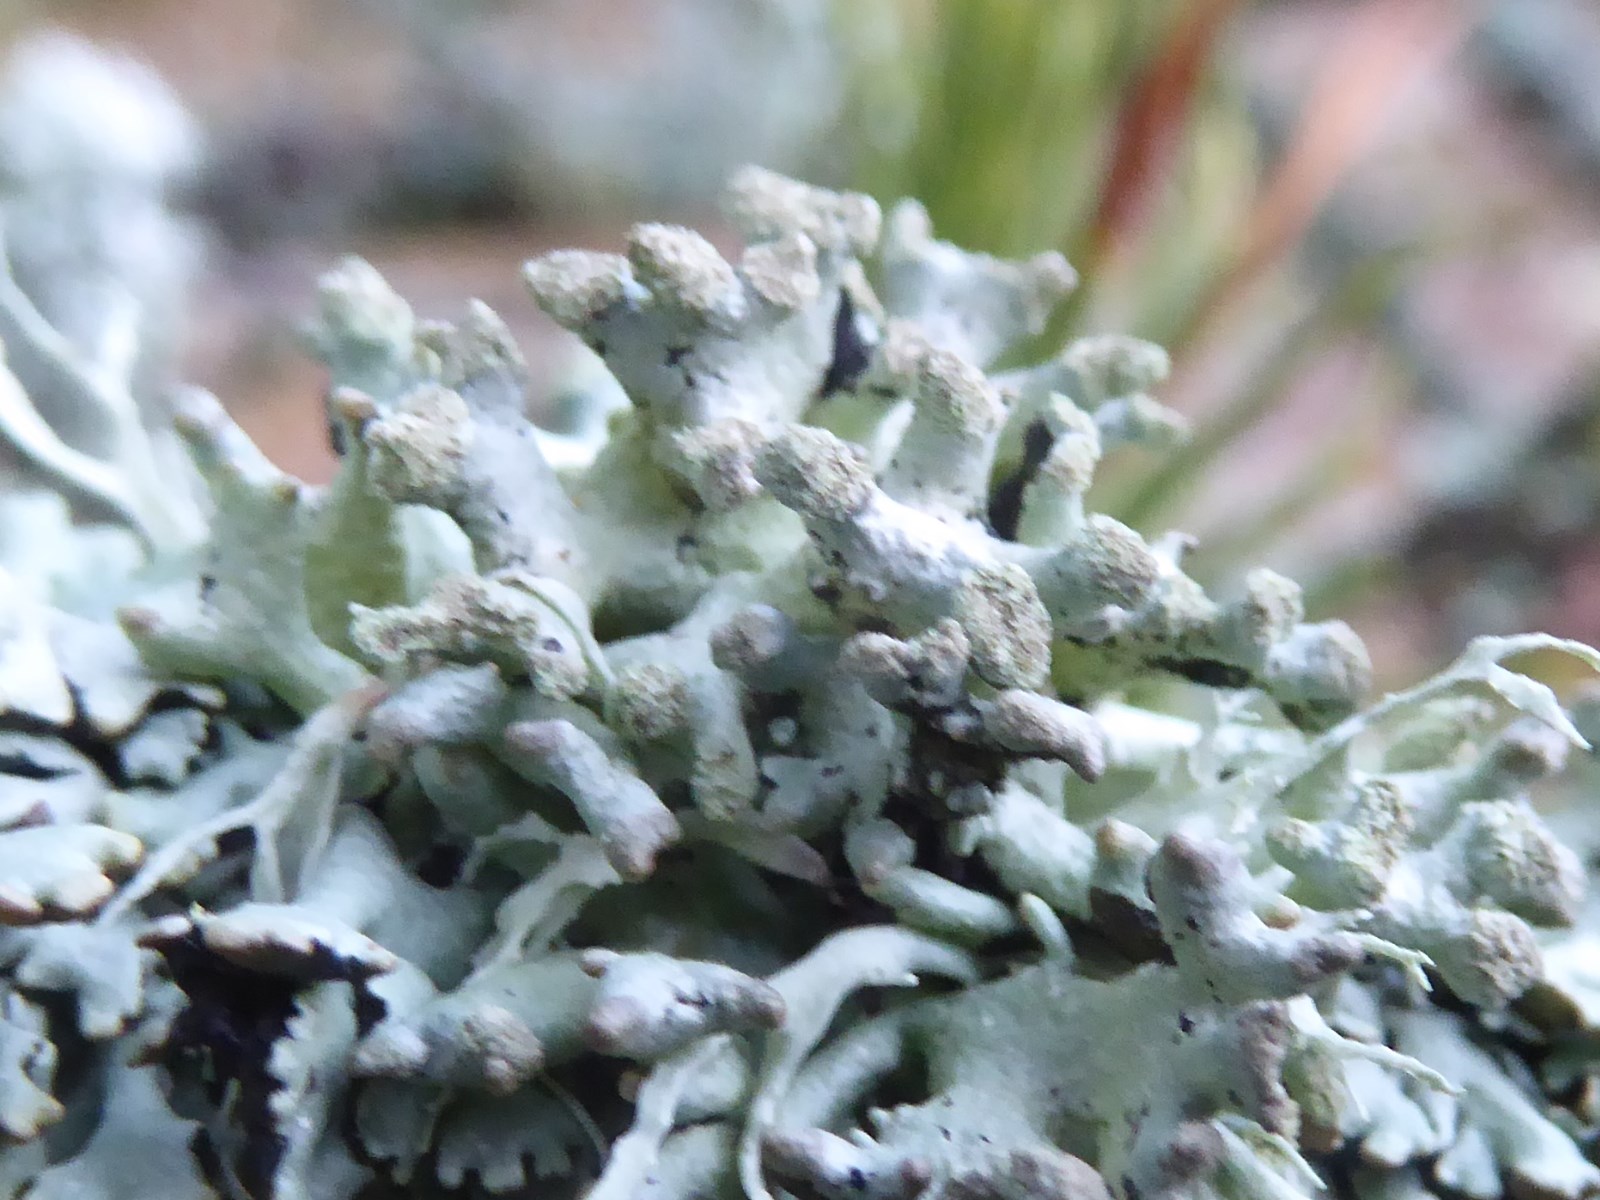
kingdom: Fungi
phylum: Ascomycota
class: Lecanoromycetes
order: Lecanorales
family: Parmeliaceae
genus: Hypogymnia
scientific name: Hypogymnia tubulosa
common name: finger-kvistlav
